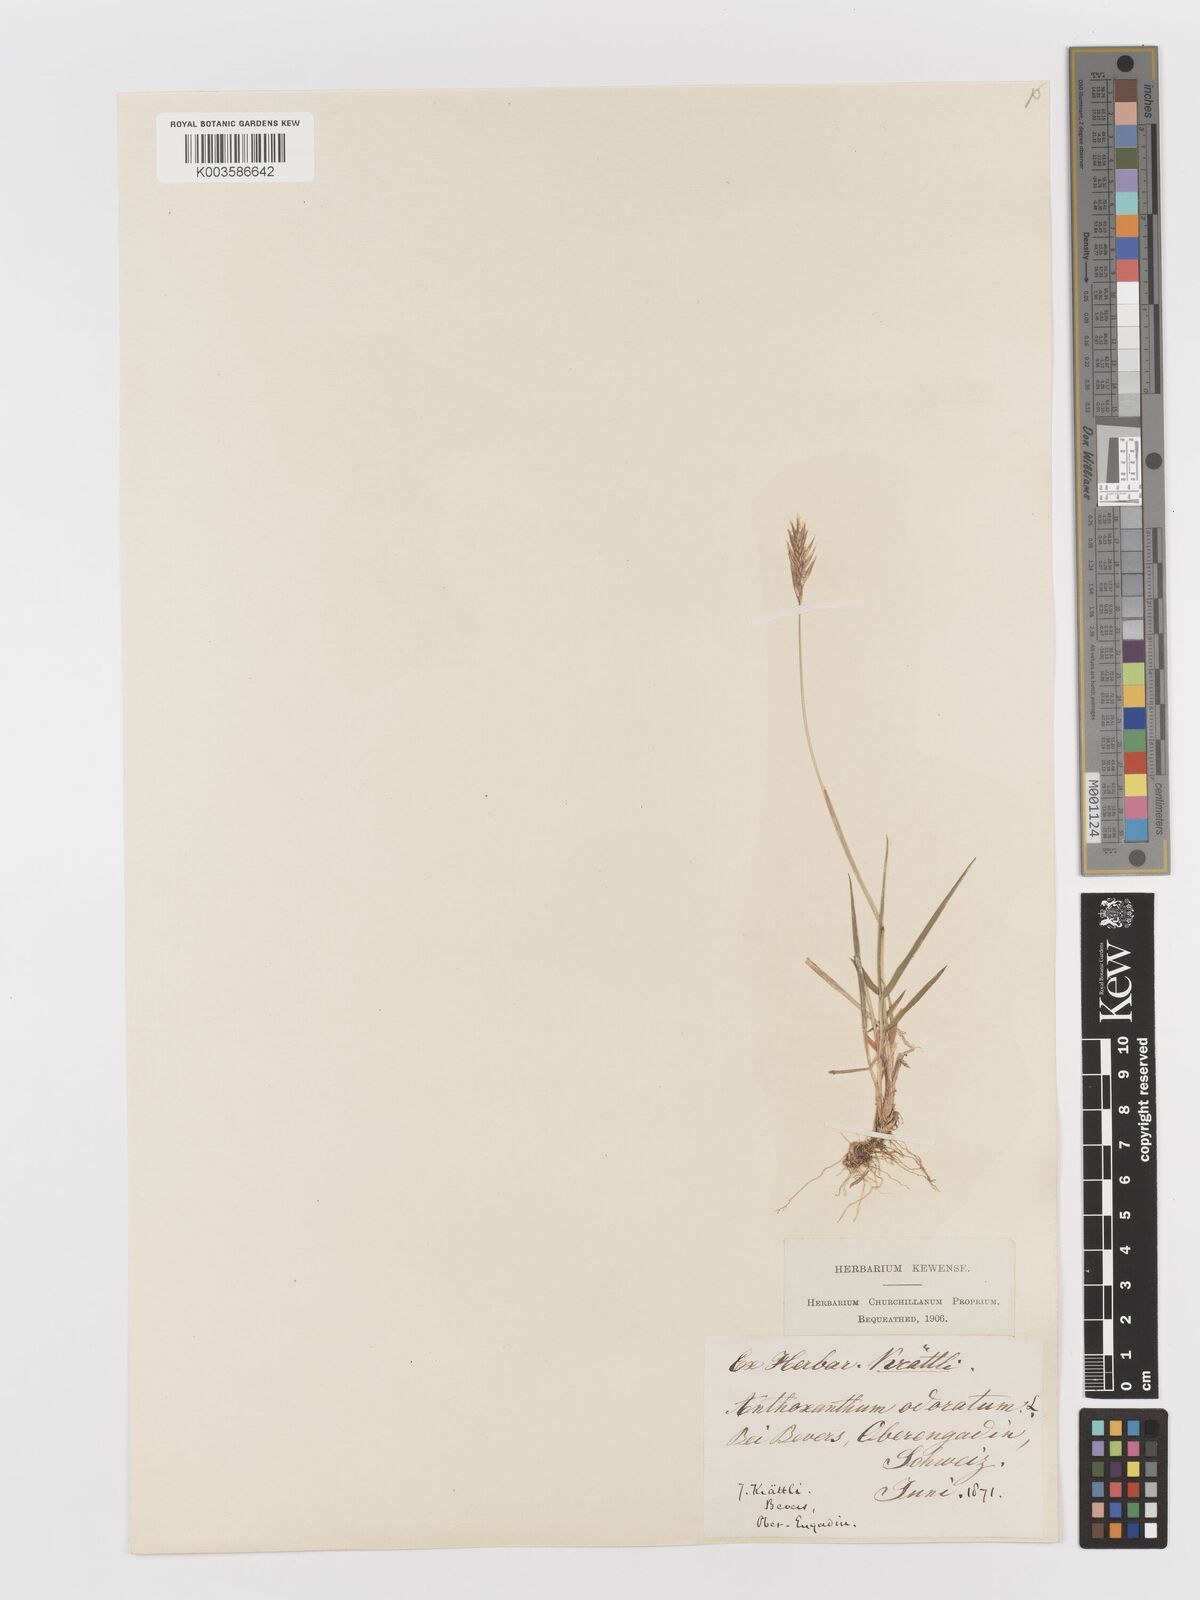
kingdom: Plantae
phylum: Tracheophyta
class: Liliopsida
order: Poales
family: Poaceae
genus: Anthoxanthum
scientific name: Anthoxanthum odoratum
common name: Sweet vernalgrass
